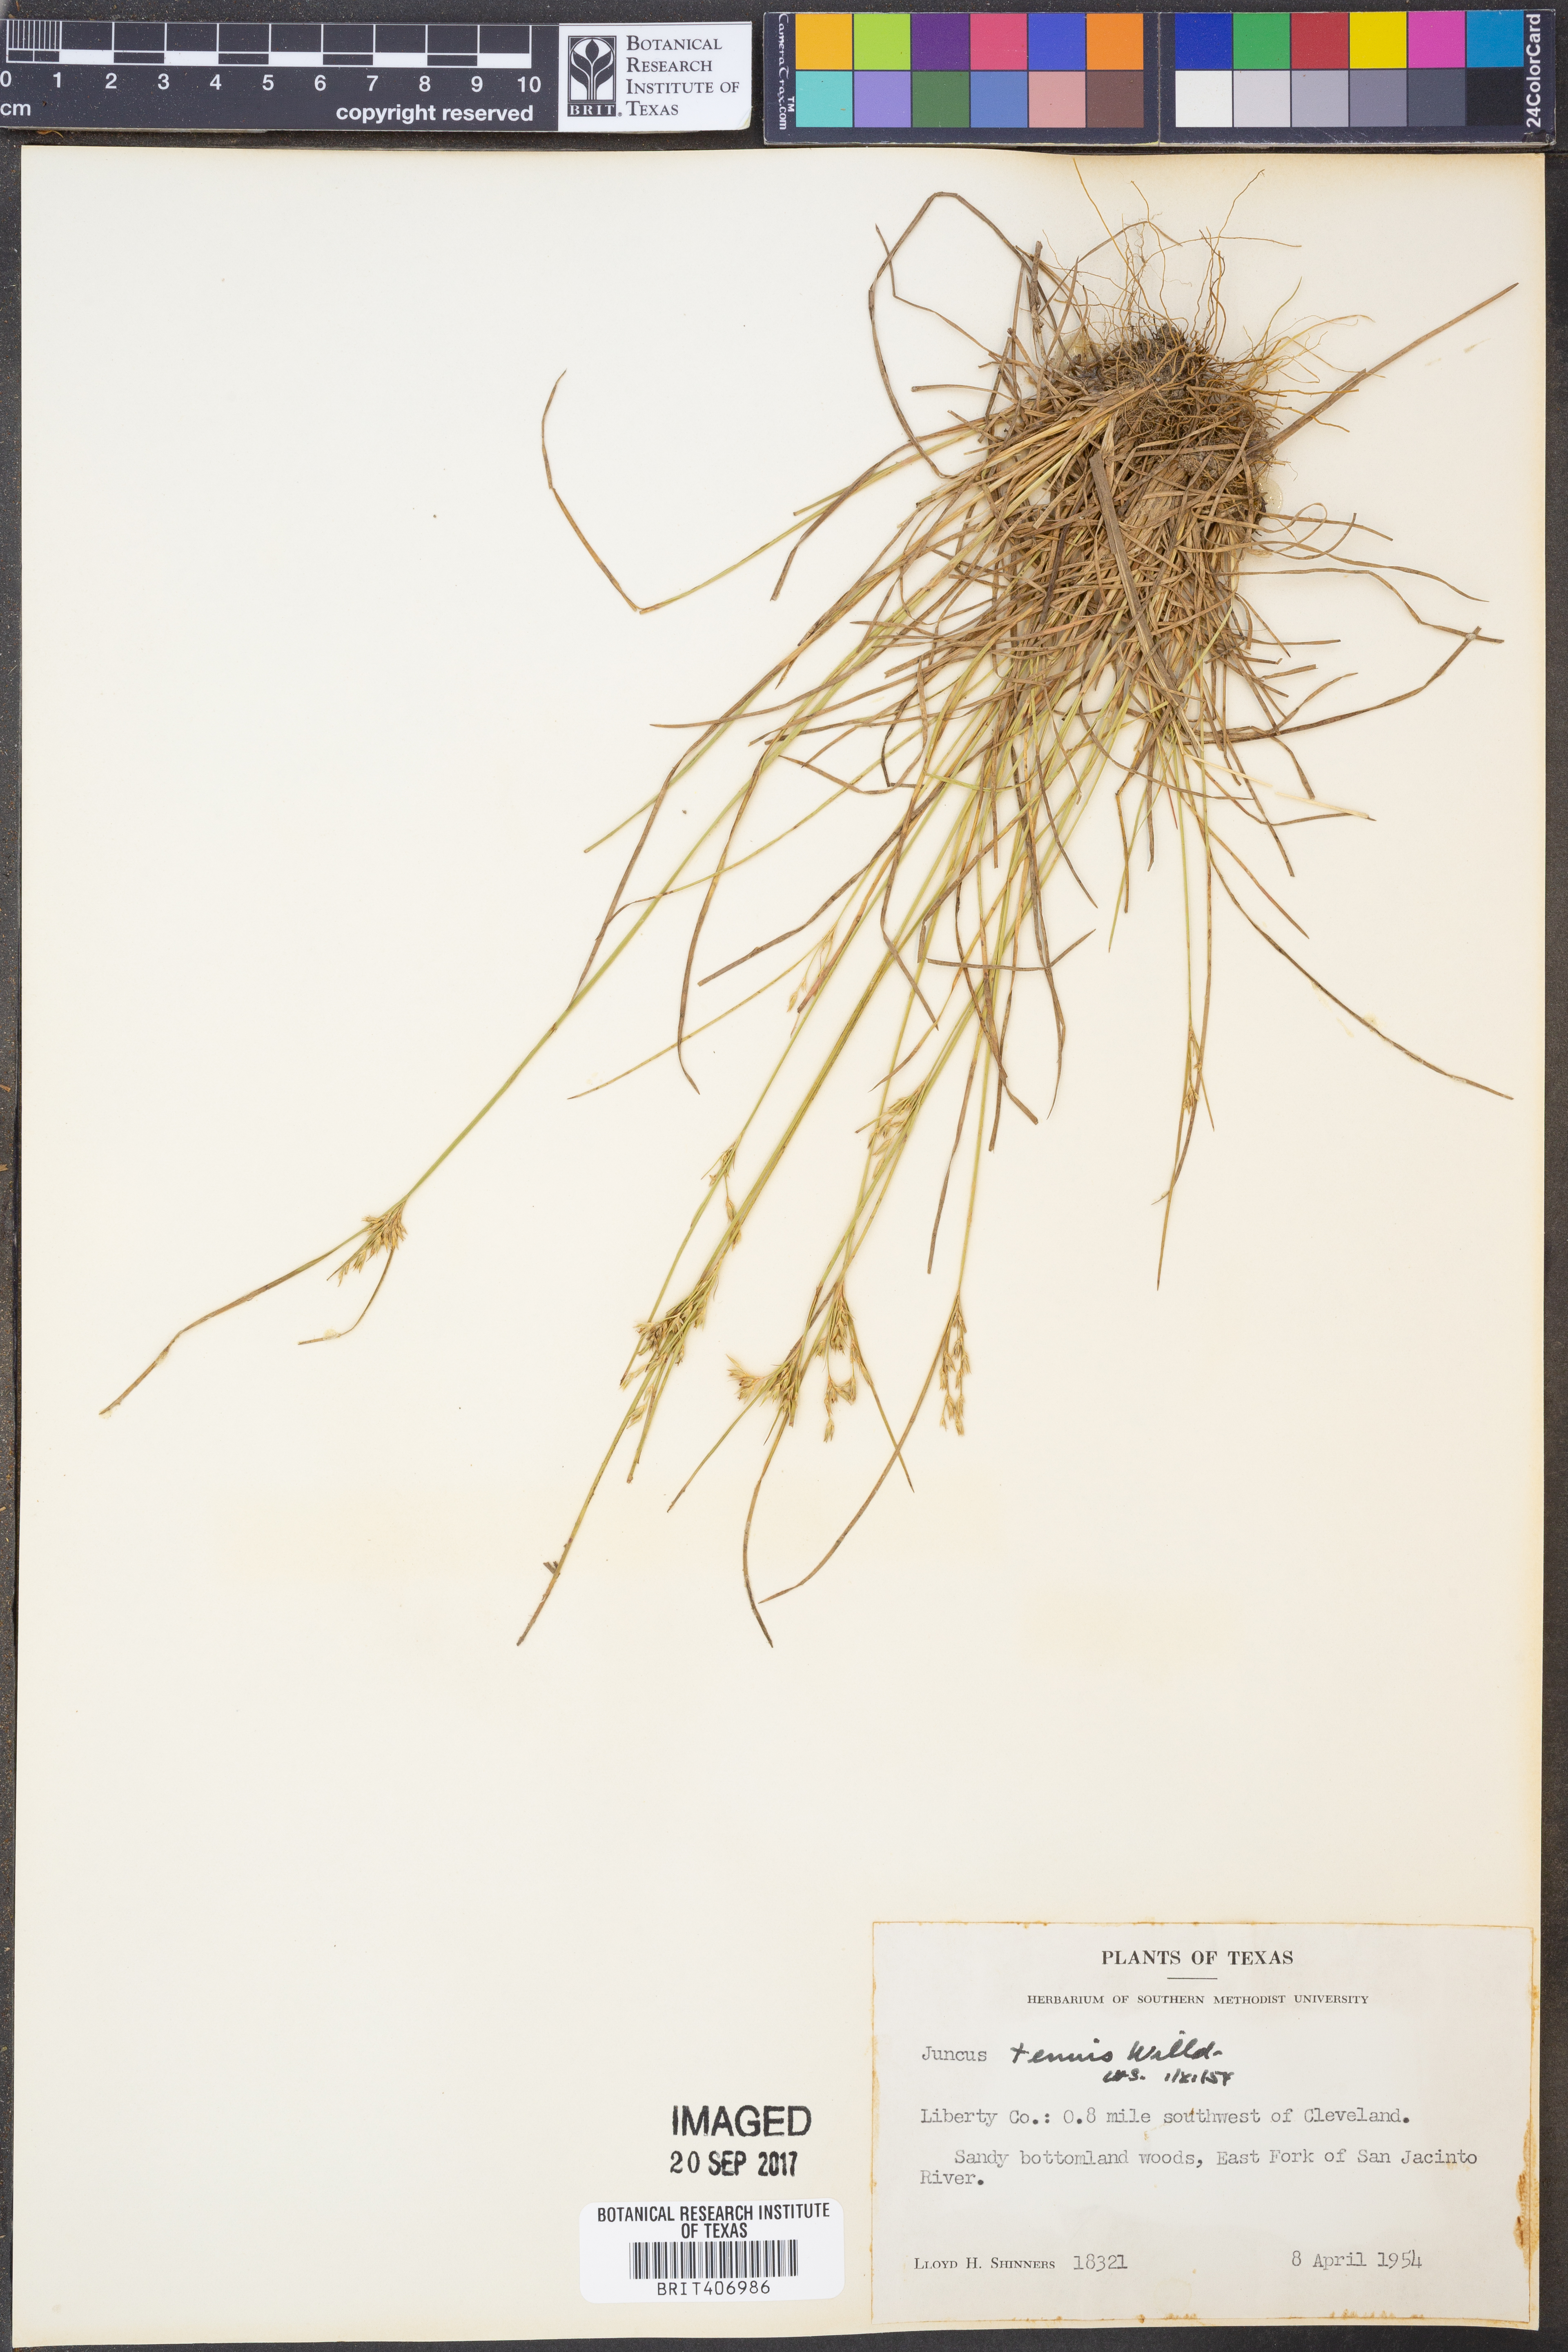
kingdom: Plantae
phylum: Tracheophyta
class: Liliopsida
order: Poales
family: Juncaceae
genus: Juncus
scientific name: Juncus tenuis
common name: Slender rush
